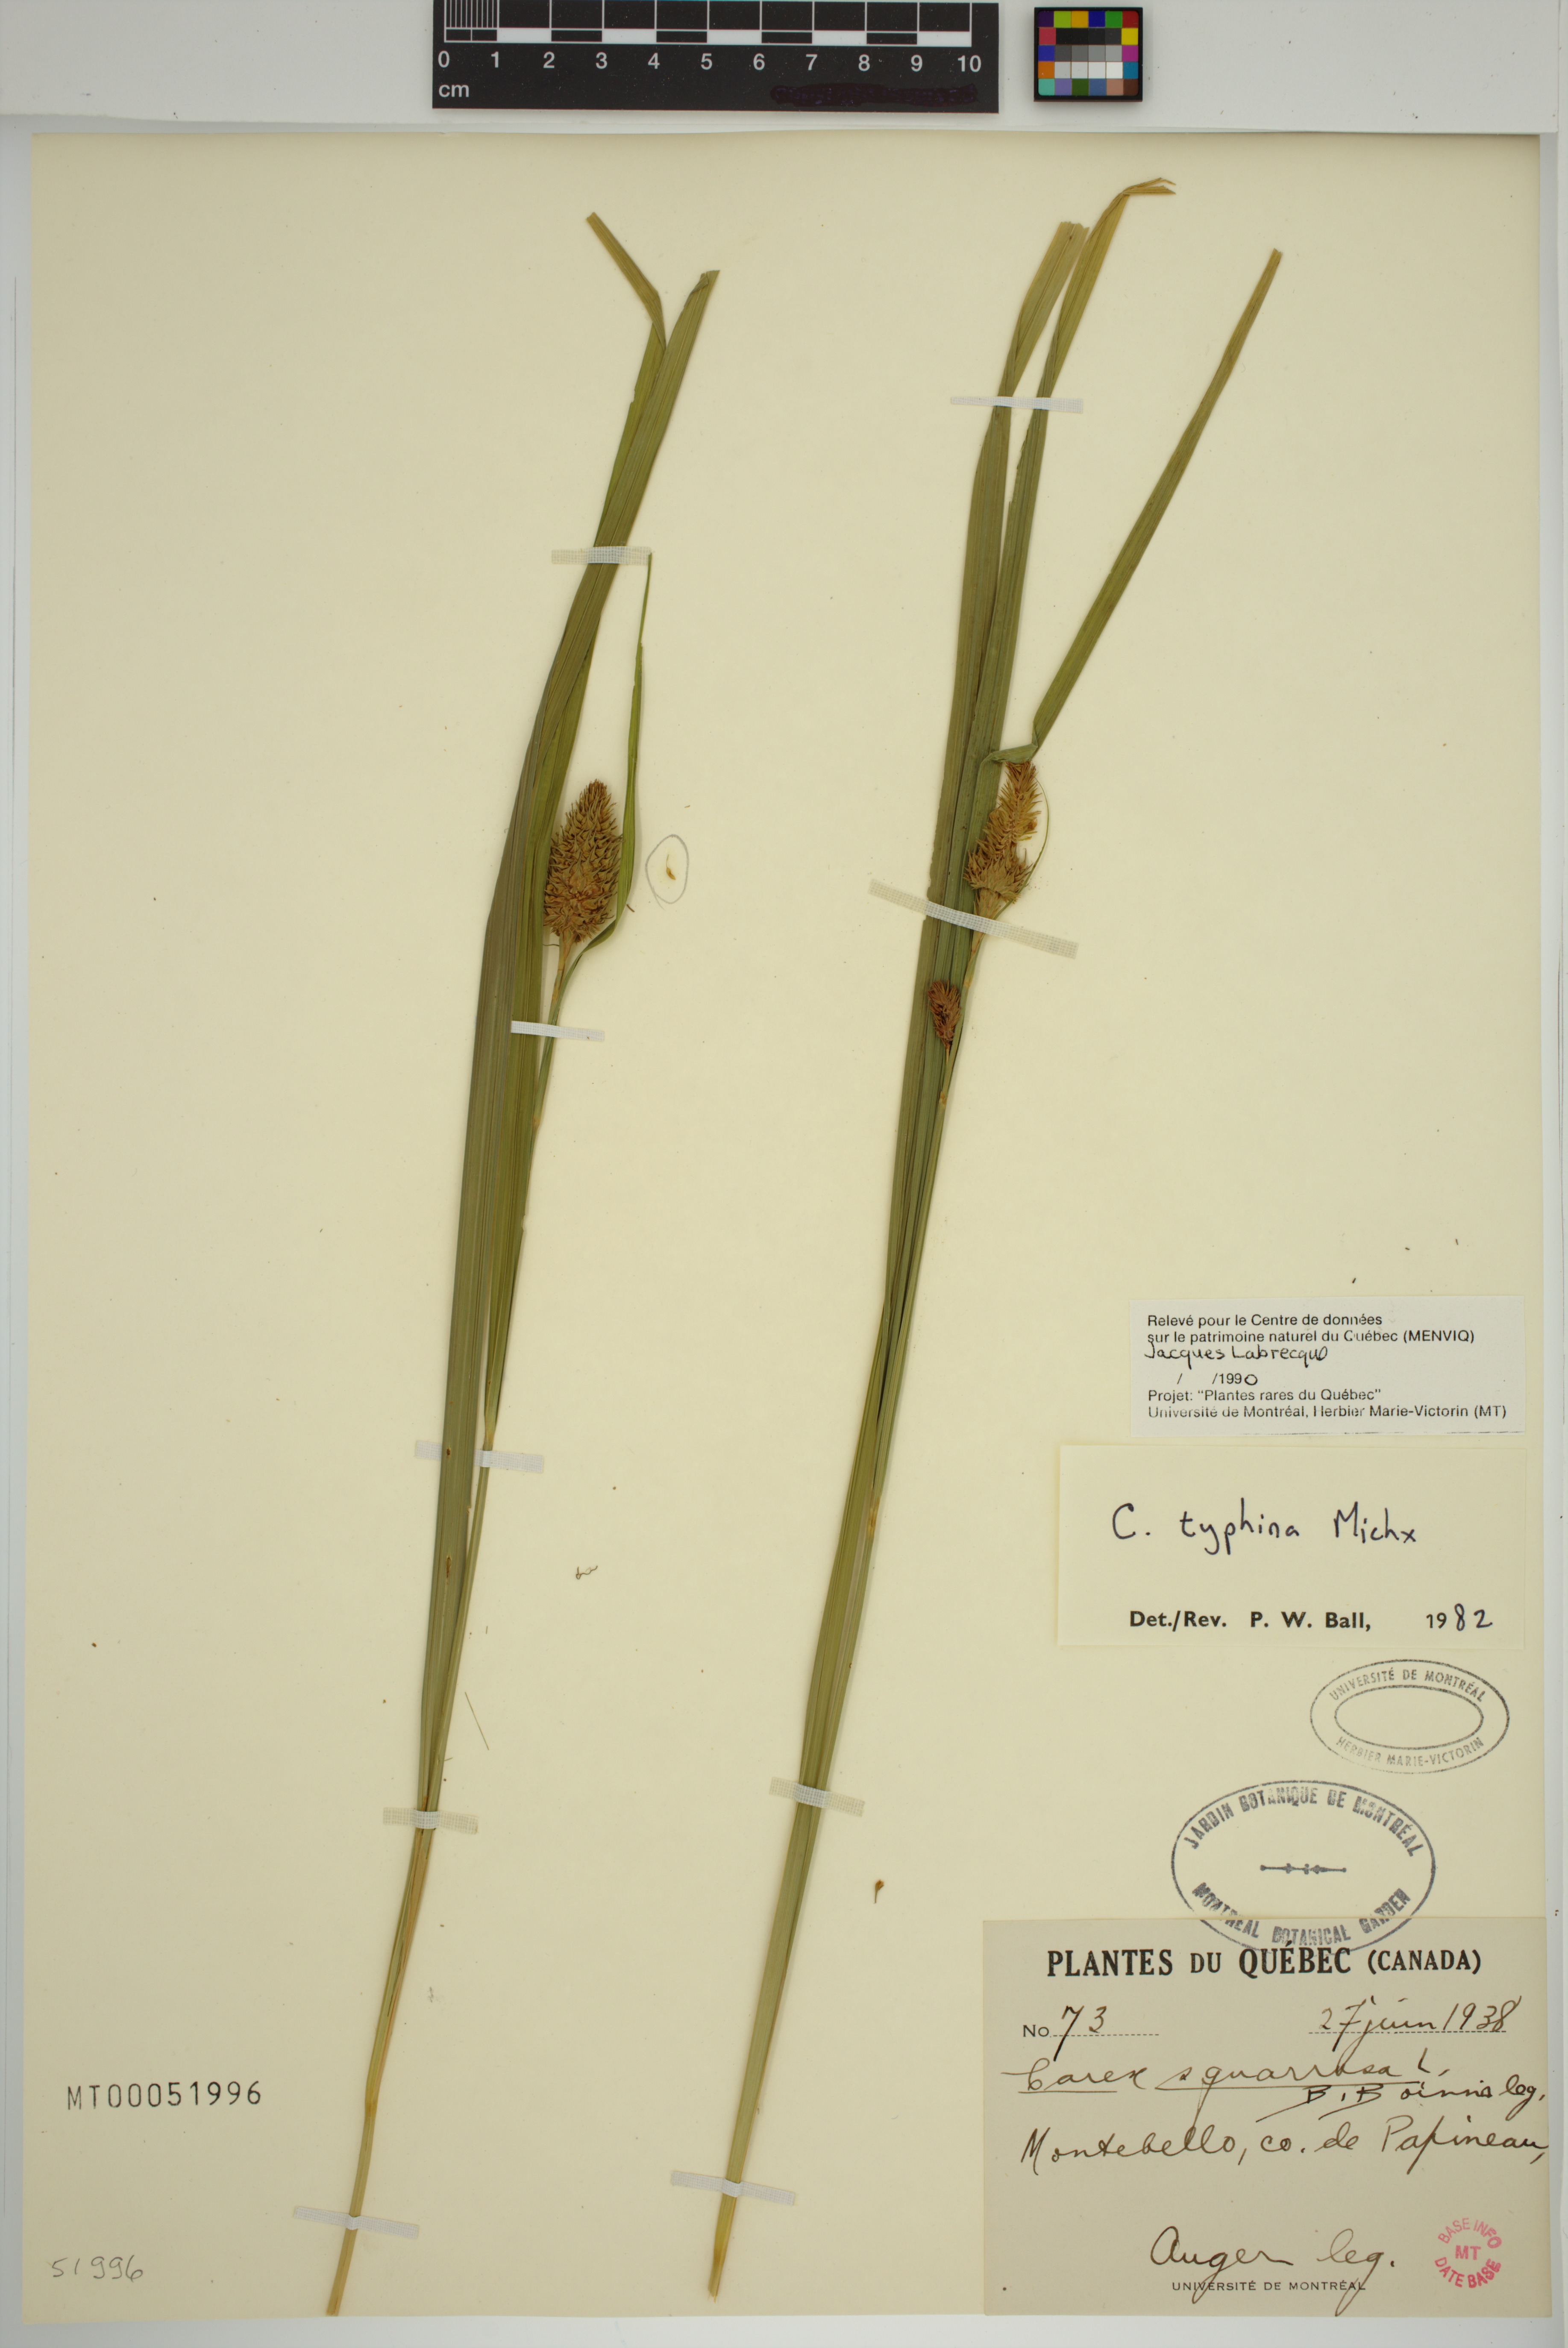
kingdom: Plantae
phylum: Tracheophyta
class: Liliopsida
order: Poales
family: Cyperaceae
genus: Carex
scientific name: Carex typhina
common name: Cattail sedge
